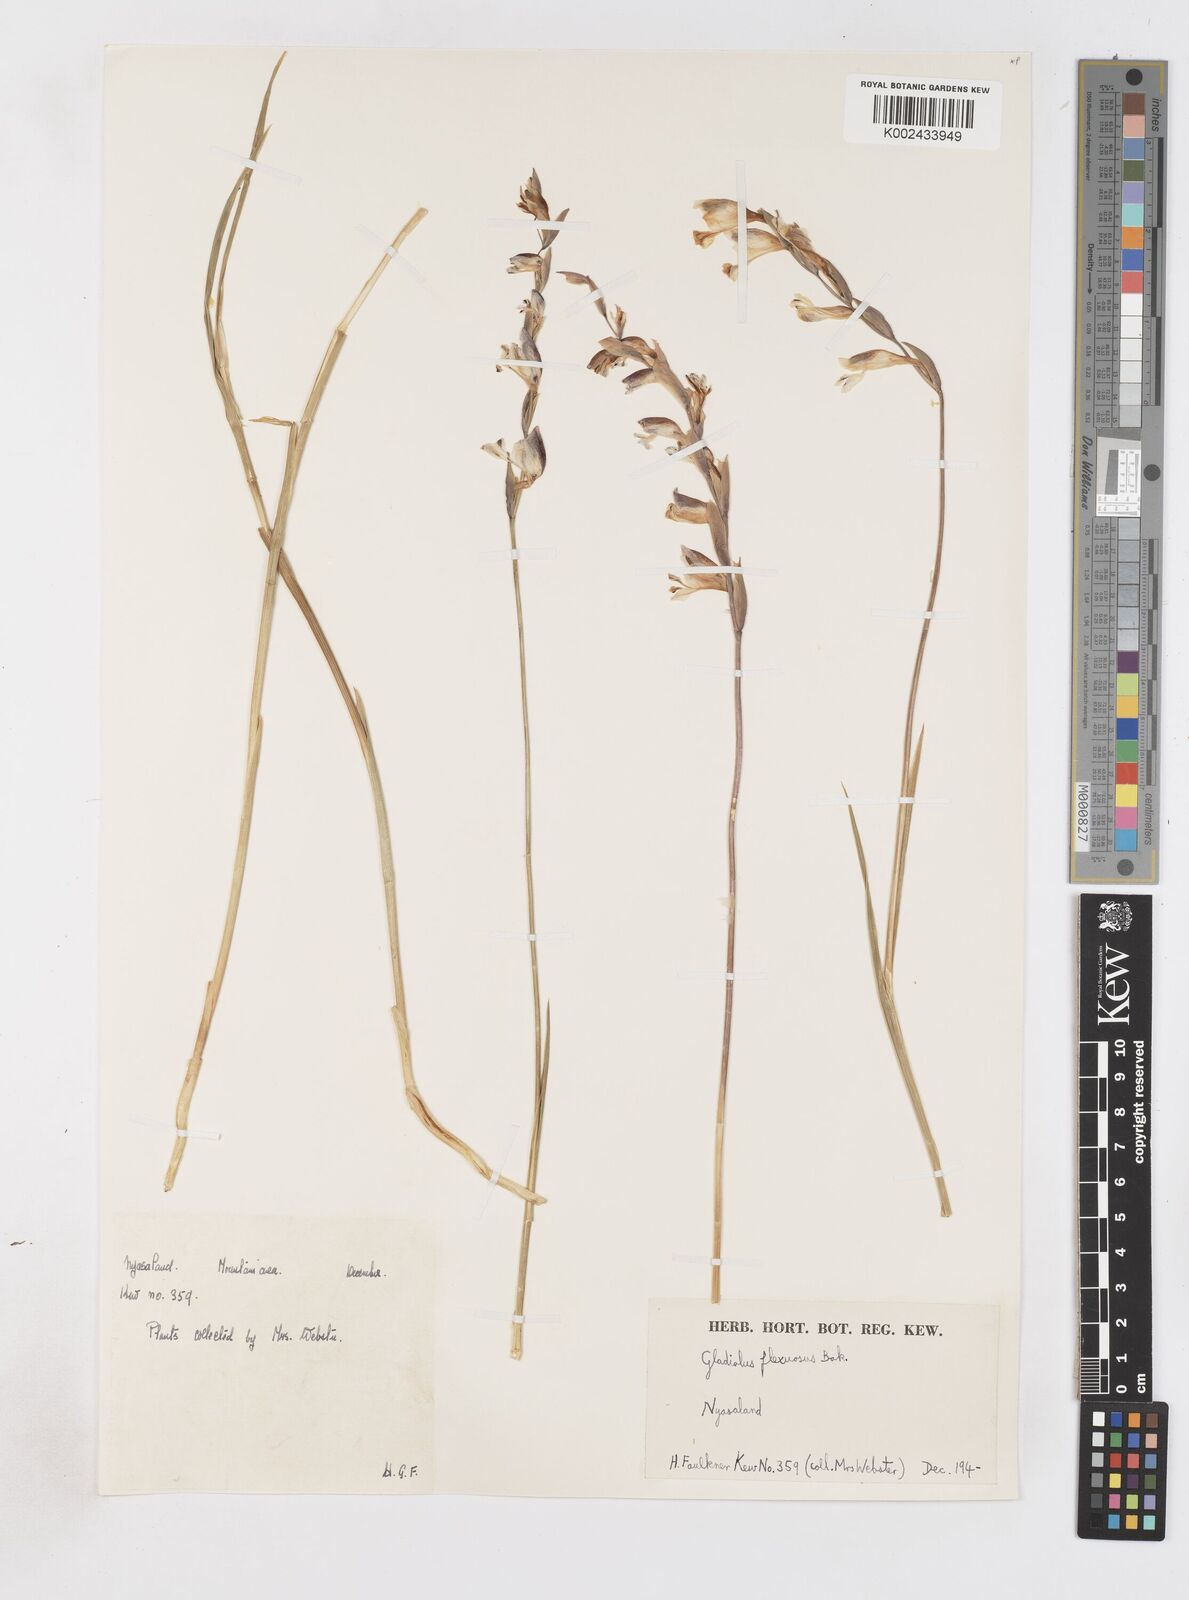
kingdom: Plantae
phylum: Tracheophyta
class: Liliopsida
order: Asparagales
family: Iridaceae
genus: Gladiolus
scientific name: Gladiolus atropurpureus
